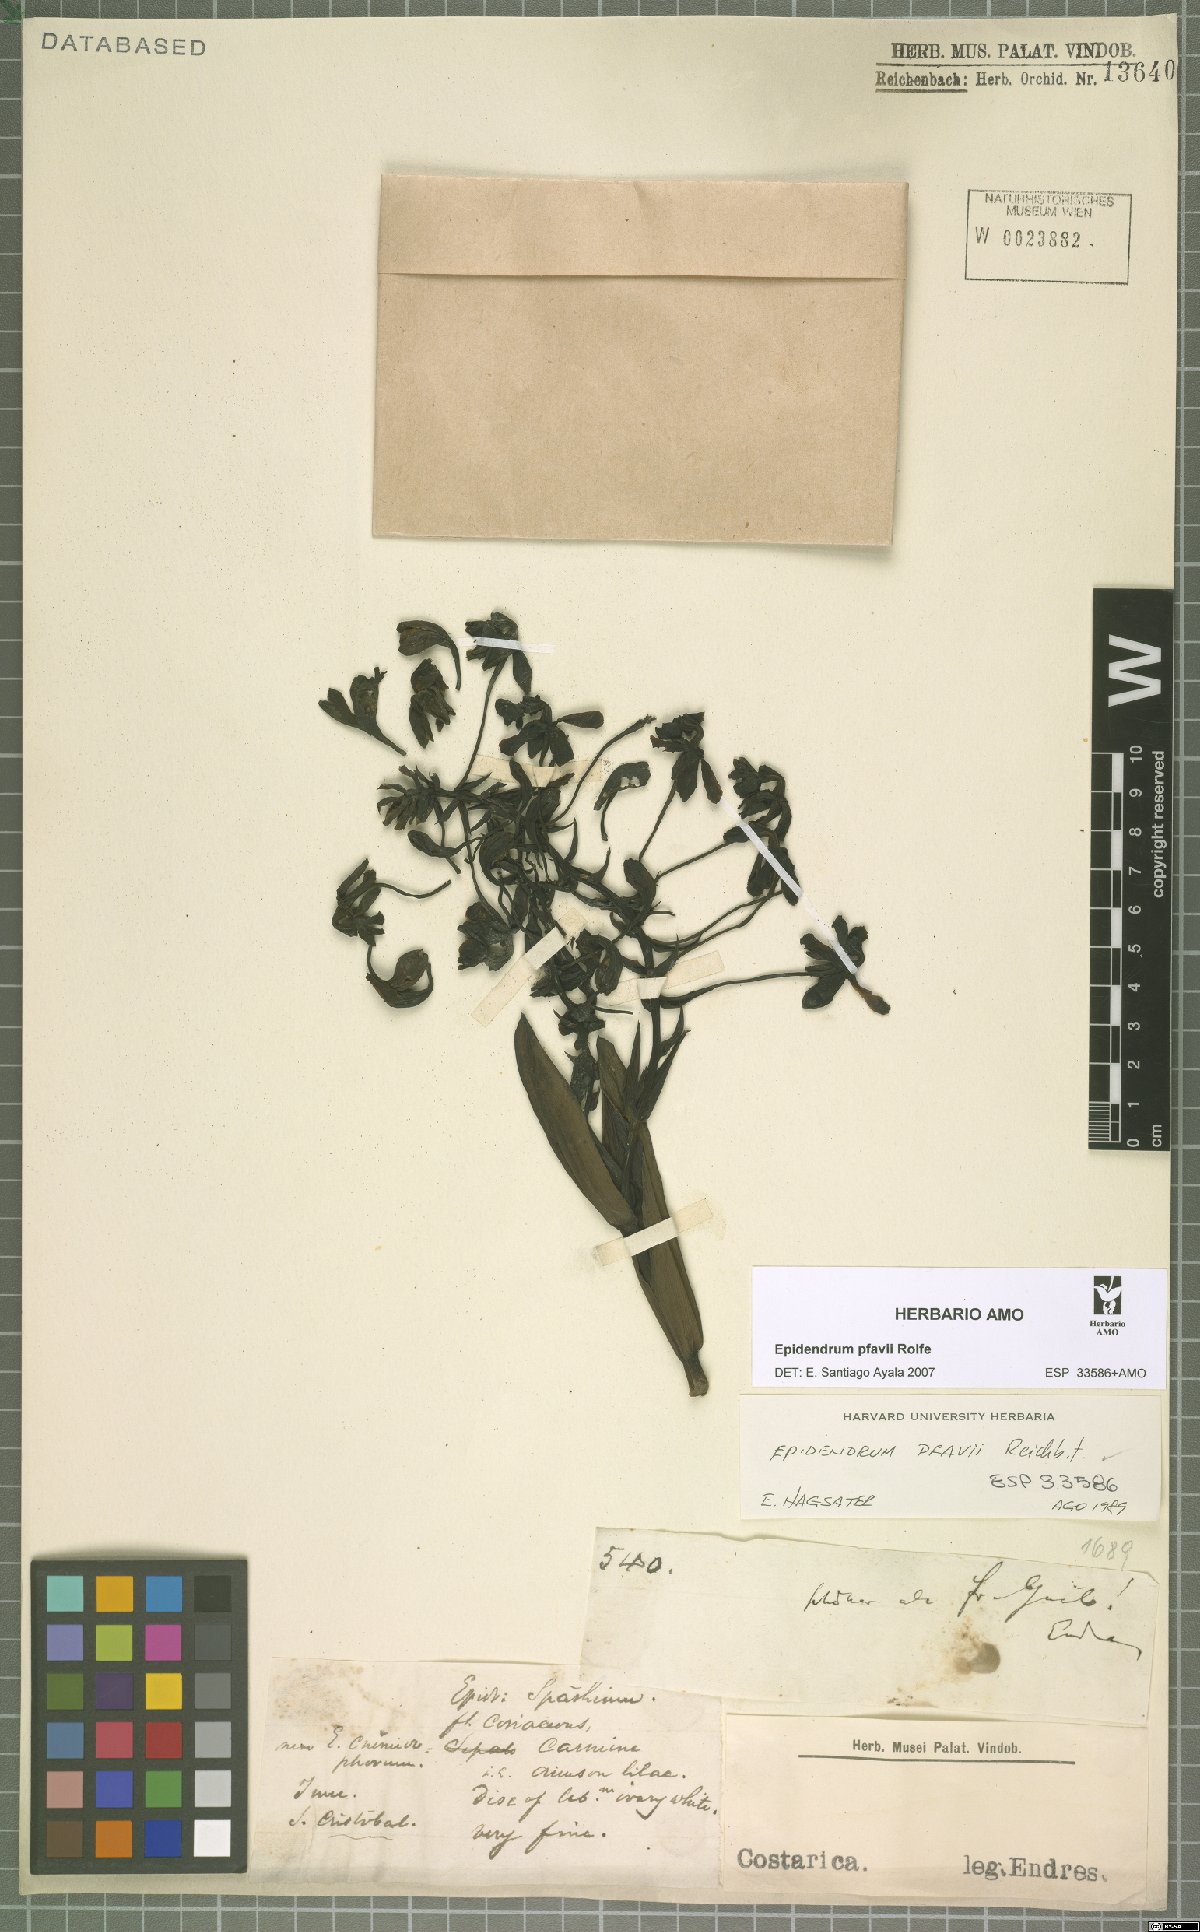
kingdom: Plantae
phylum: Tracheophyta
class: Liliopsida
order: Asparagales
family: Orchidaceae
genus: Epidendrum
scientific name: Epidendrum cnemidophorum
